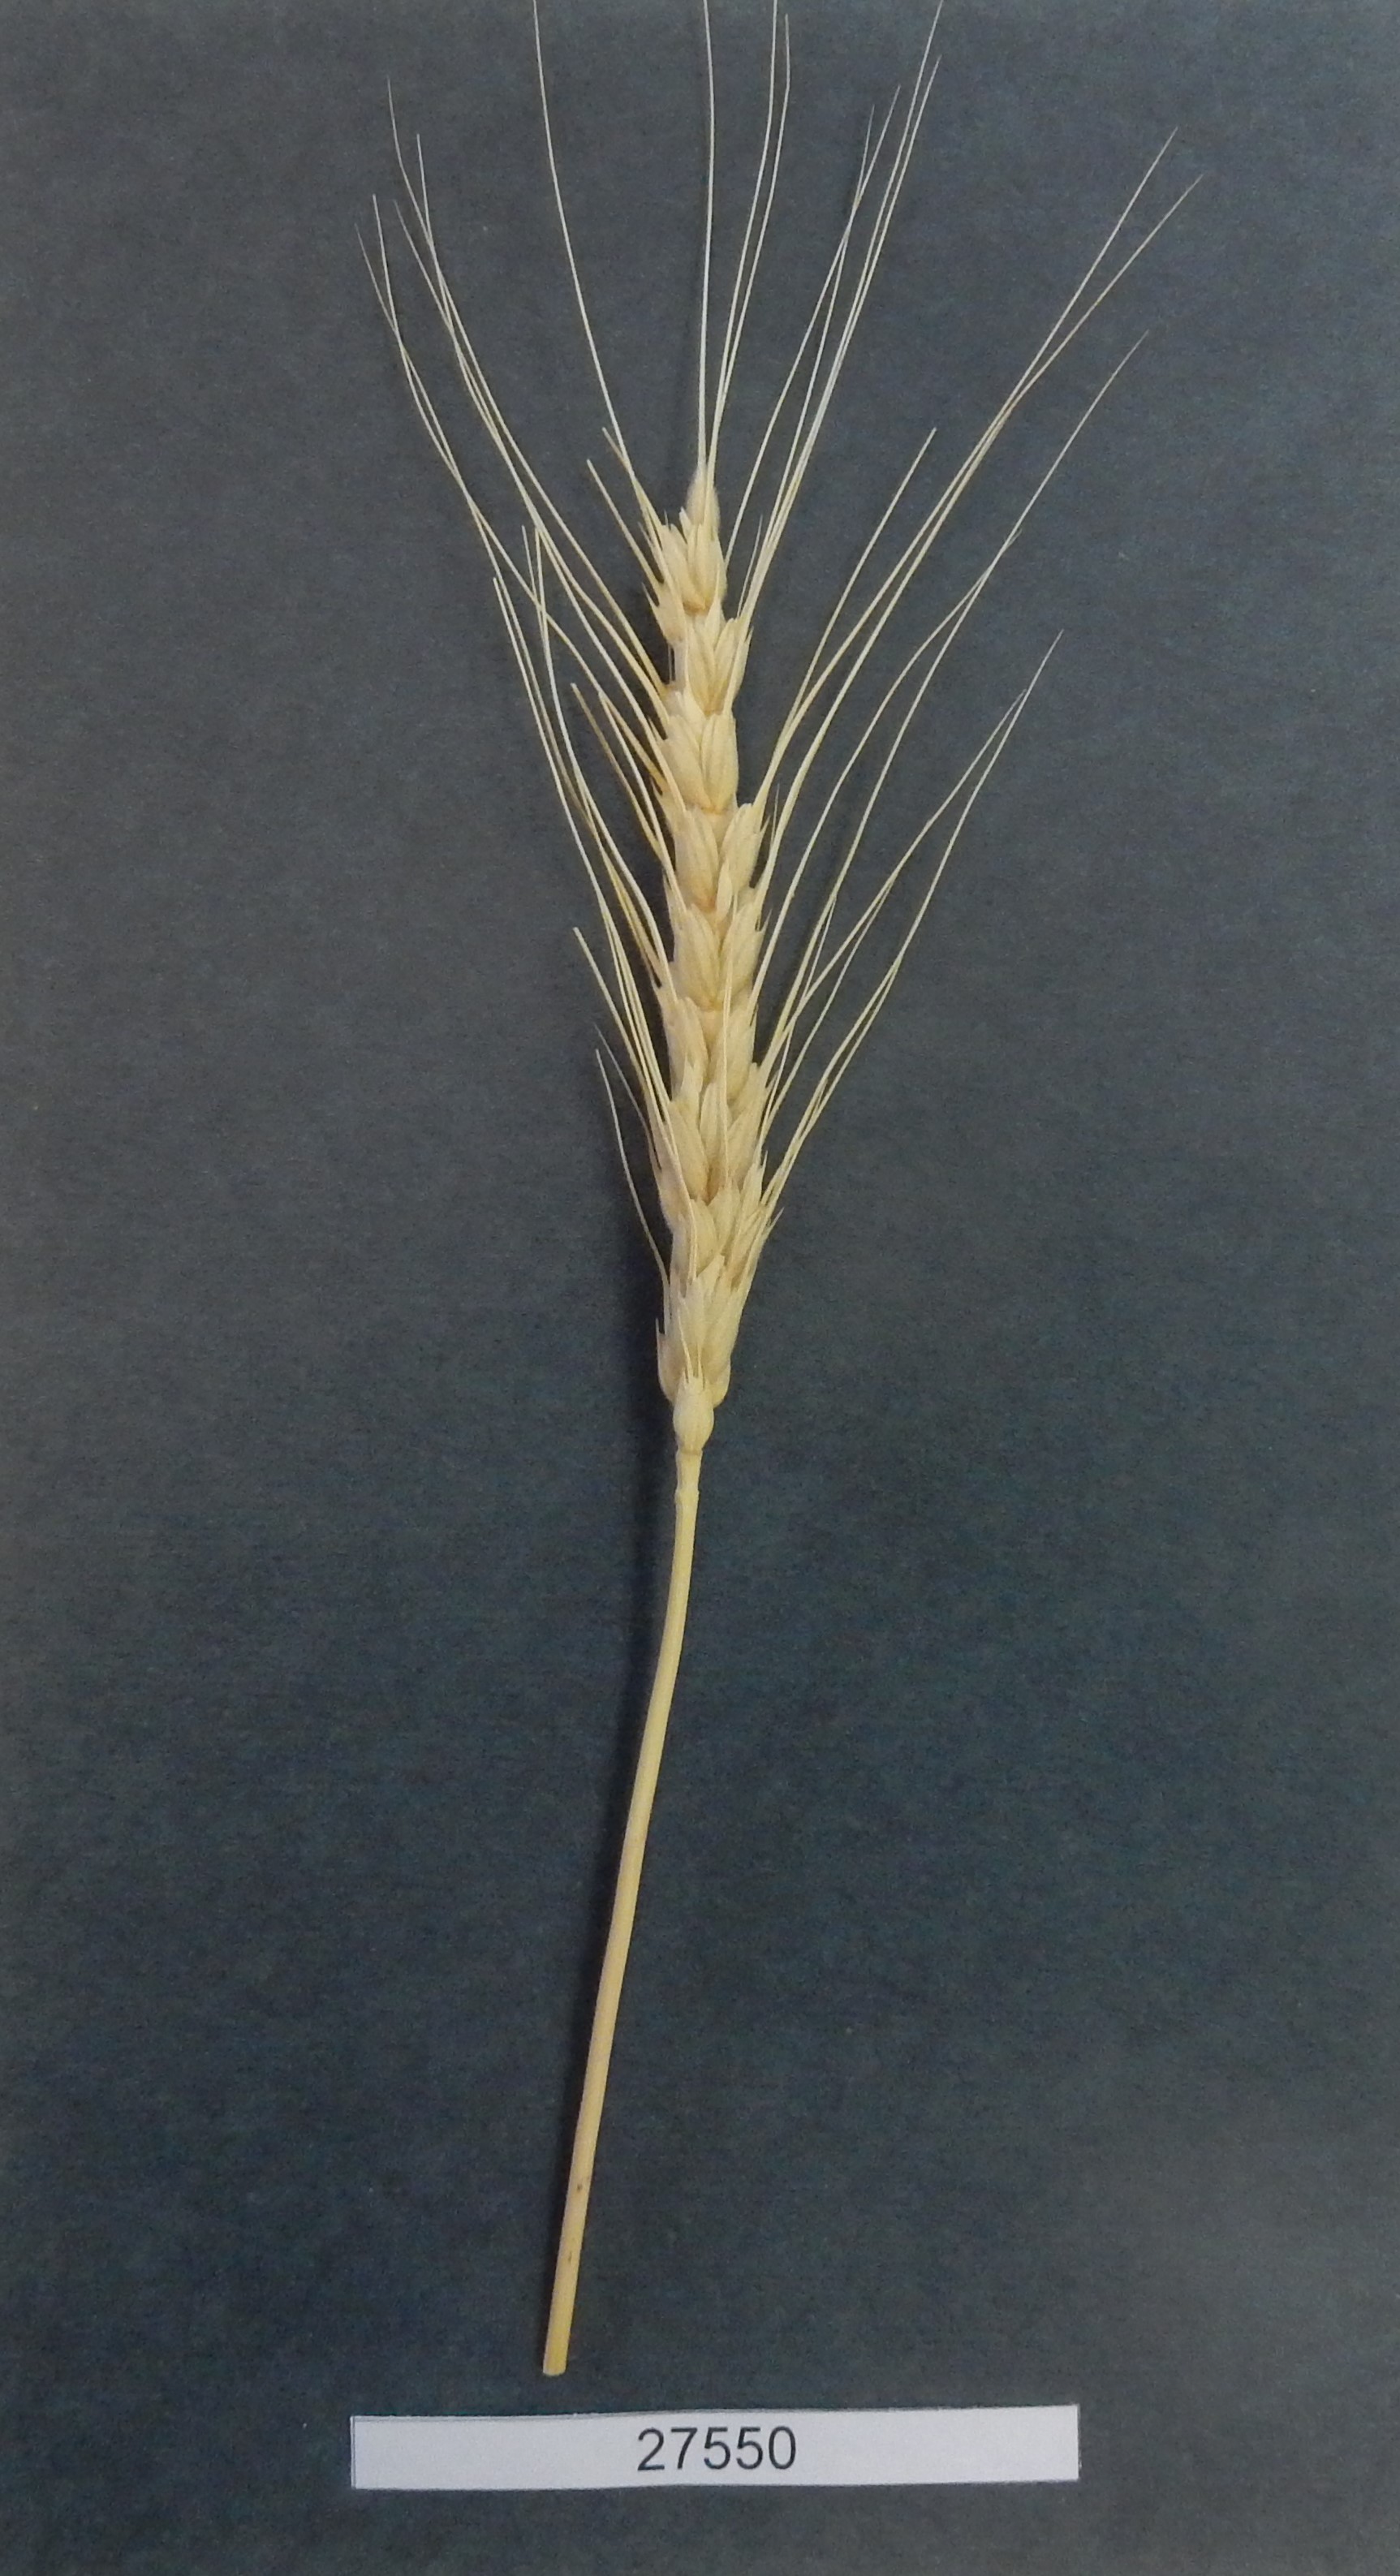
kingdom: Plantae
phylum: Tracheophyta
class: Liliopsida
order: Poales
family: Poaceae
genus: Triticum
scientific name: Triticum aestivum
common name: Common wheat
